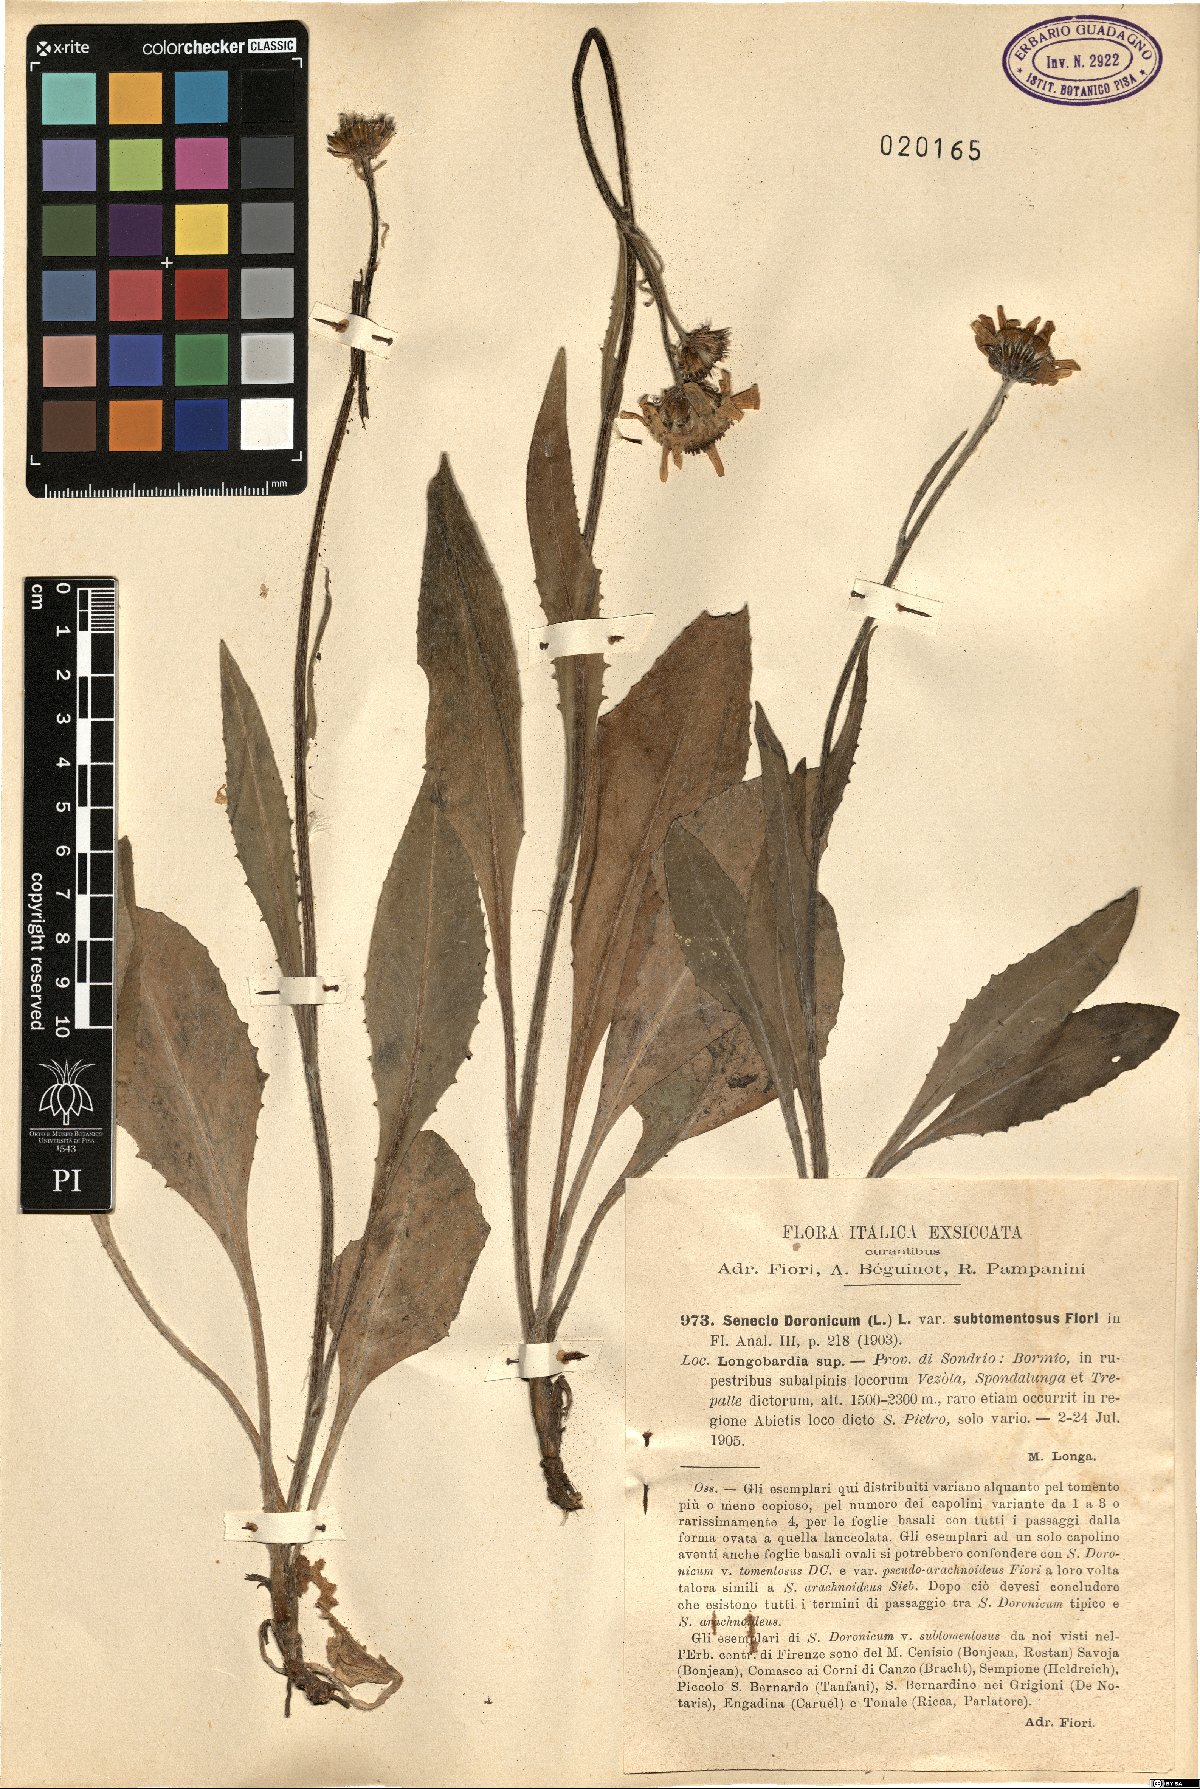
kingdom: Plantae
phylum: Tracheophyta
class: Magnoliopsida
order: Asterales
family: Asteraceae
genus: Senecio
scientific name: Senecio doronicum
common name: Chamois ragwort
